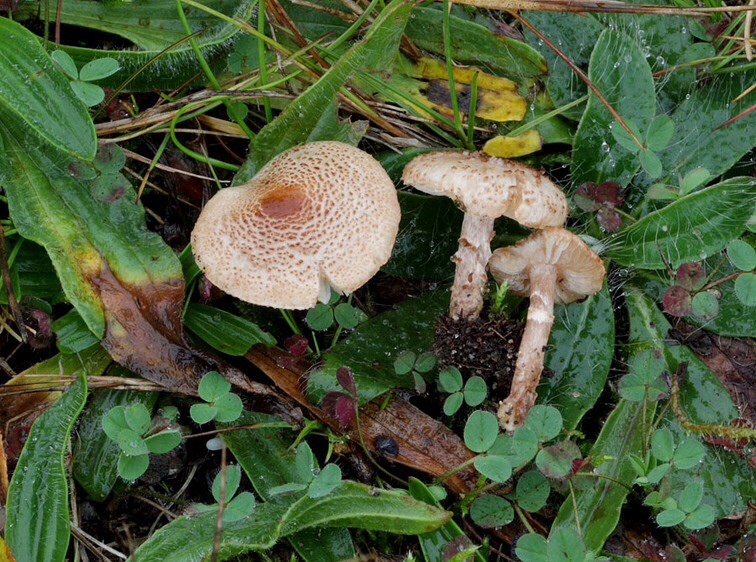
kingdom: Fungi
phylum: Basidiomycota
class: Agaricomycetes
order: Agaricales
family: Agaricaceae
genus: Lepiota
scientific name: Lepiota pseudolilacea
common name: gråbrun parasolhat
